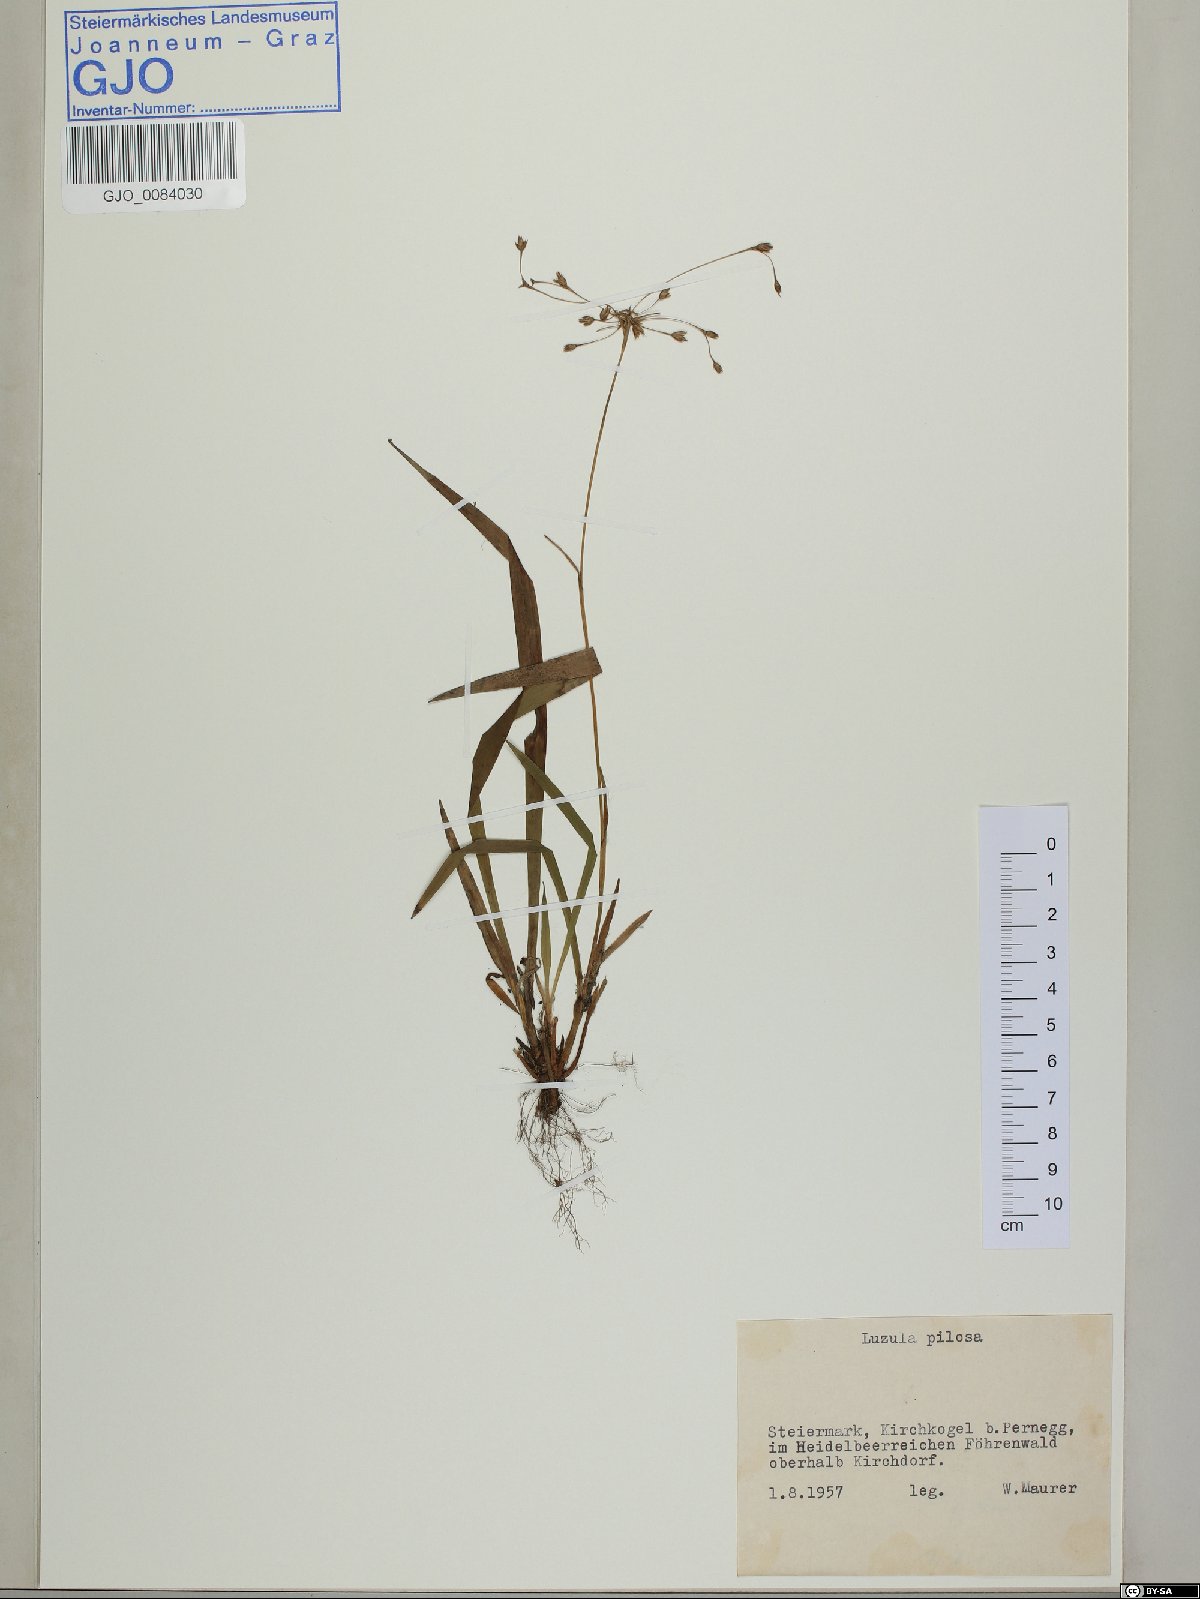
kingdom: Plantae
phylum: Tracheophyta
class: Liliopsida
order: Poales
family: Juncaceae
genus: Luzula
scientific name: Luzula pilosa
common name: Hairy wood-rush
